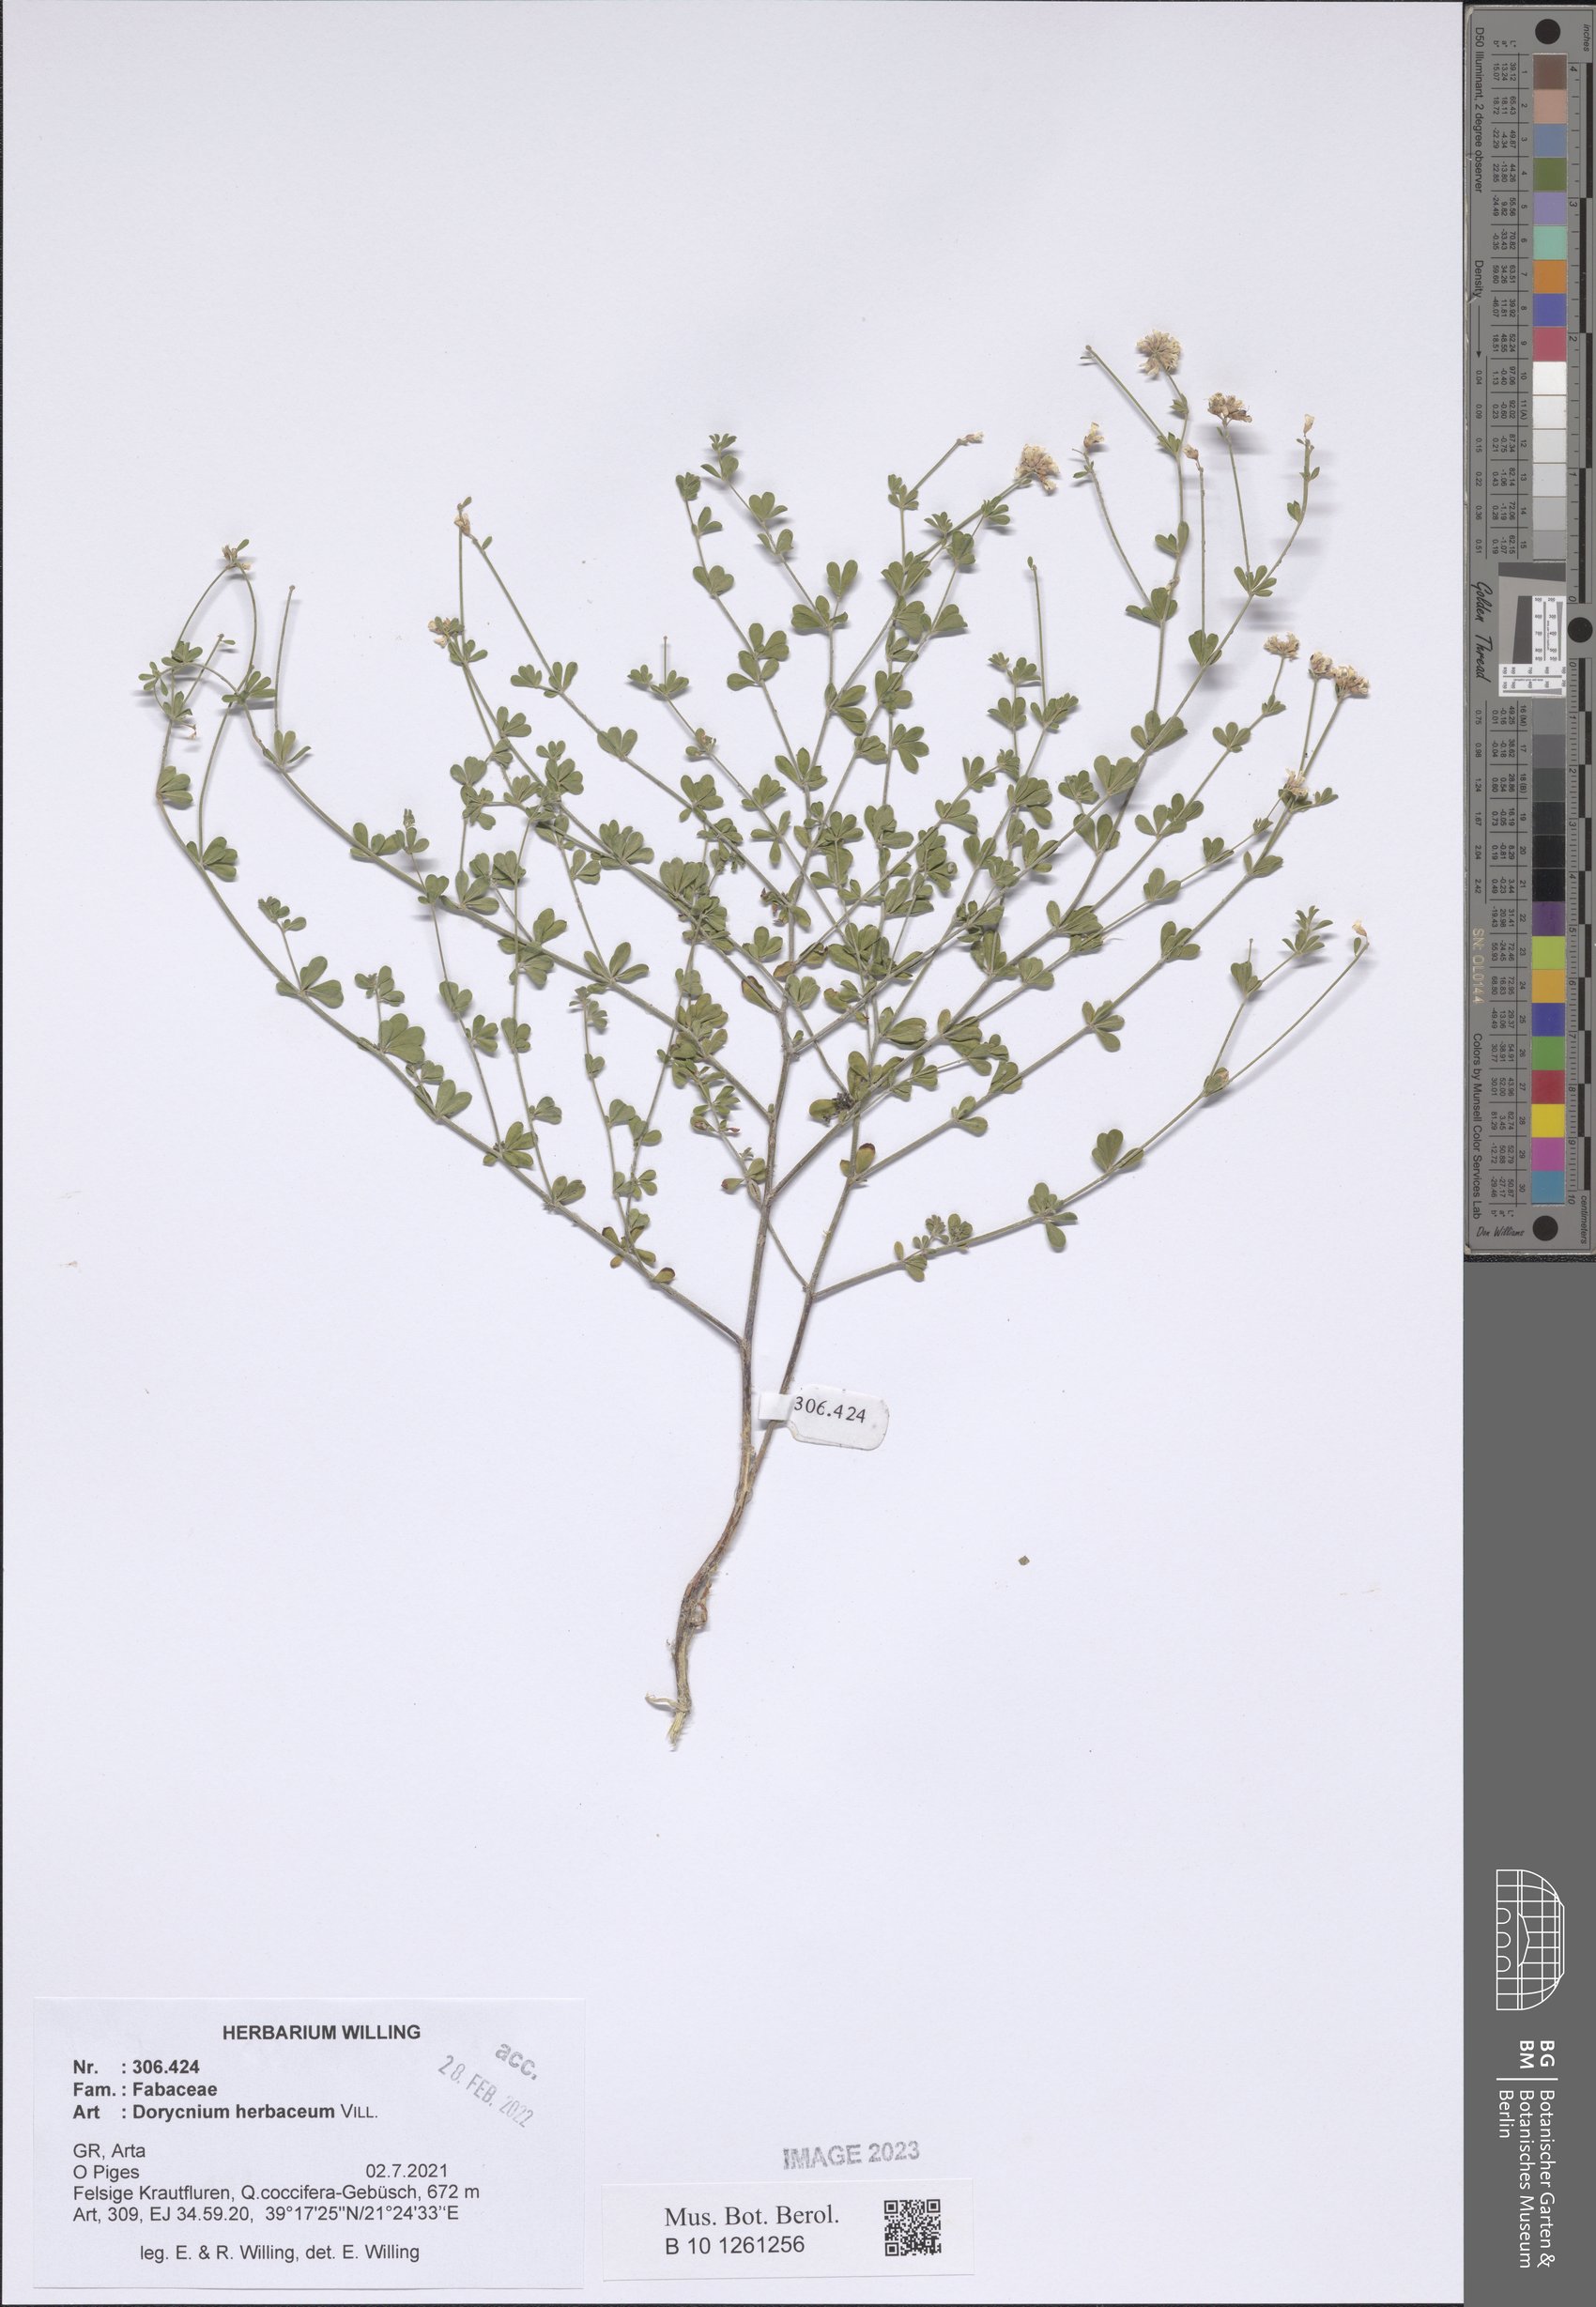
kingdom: Plantae
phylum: Tracheophyta
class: Magnoliopsida
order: Fabales
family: Fabaceae
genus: Lotus
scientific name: Lotus herbaceus
